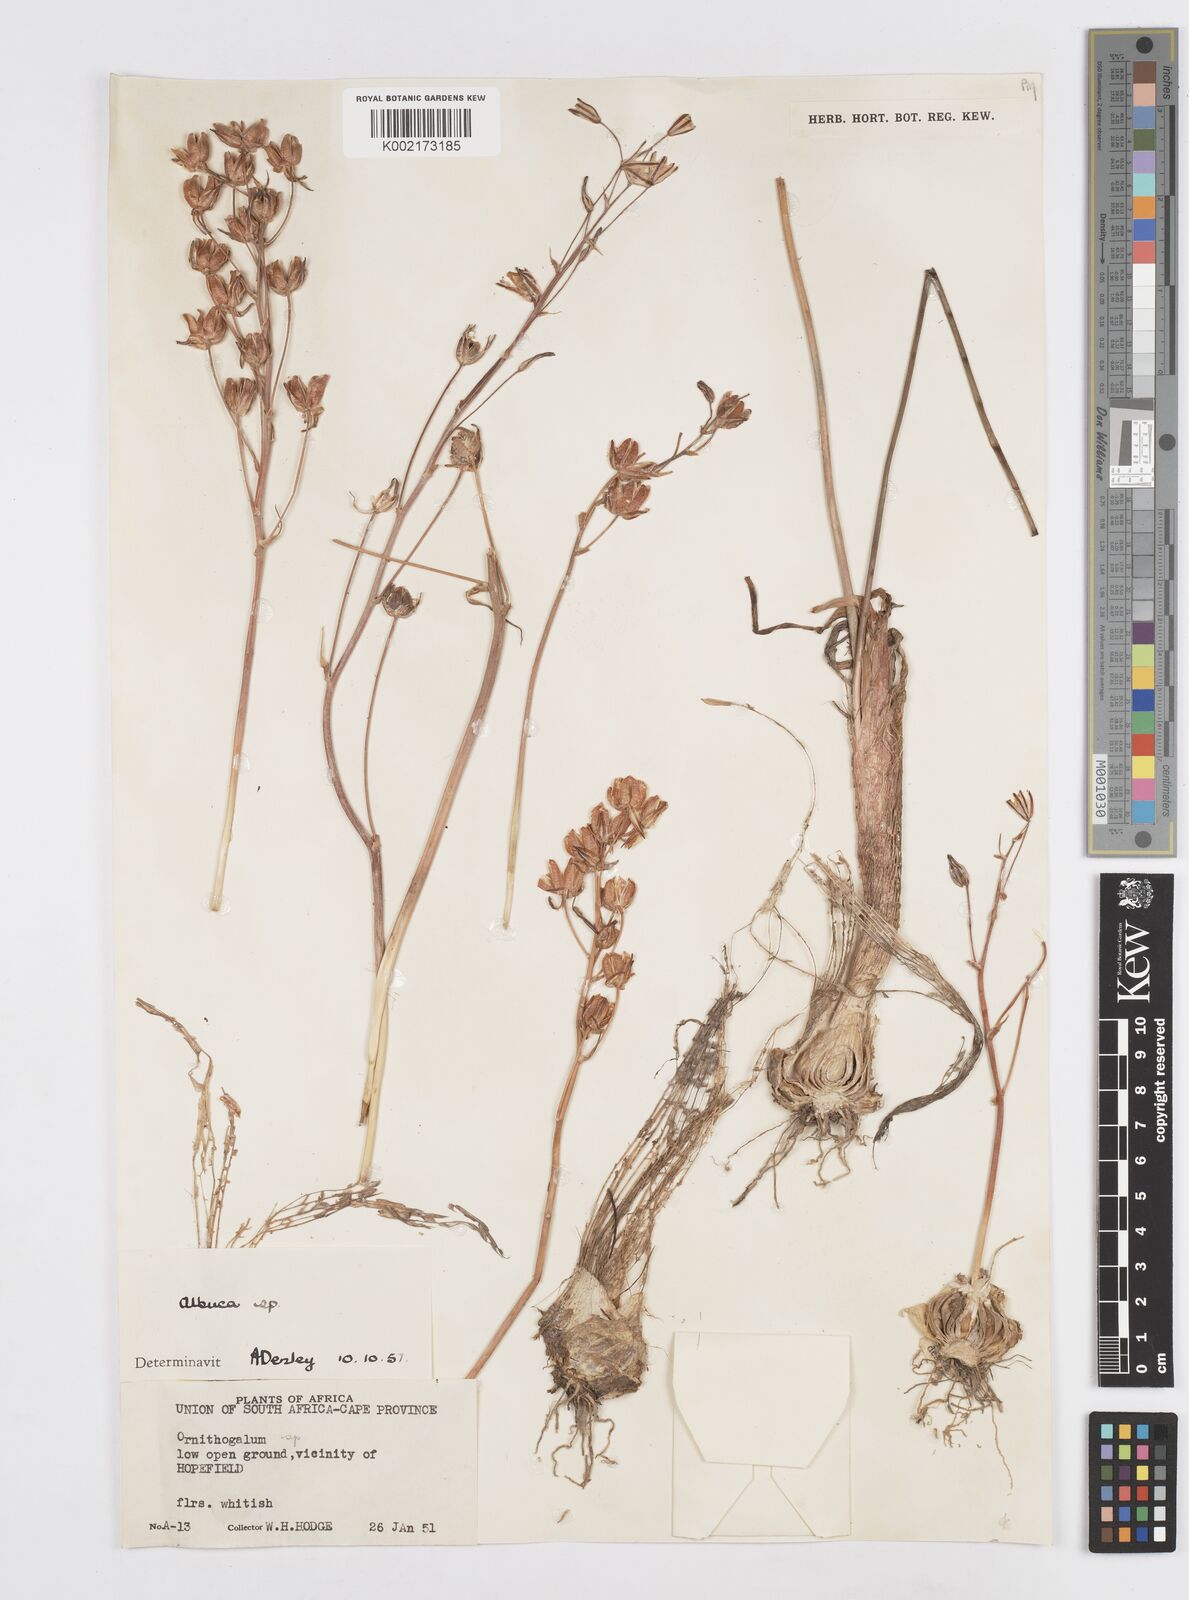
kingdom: Plantae
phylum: Tracheophyta
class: Liliopsida
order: Asparagales
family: Asparagaceae
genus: Albuca
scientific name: Albuca
